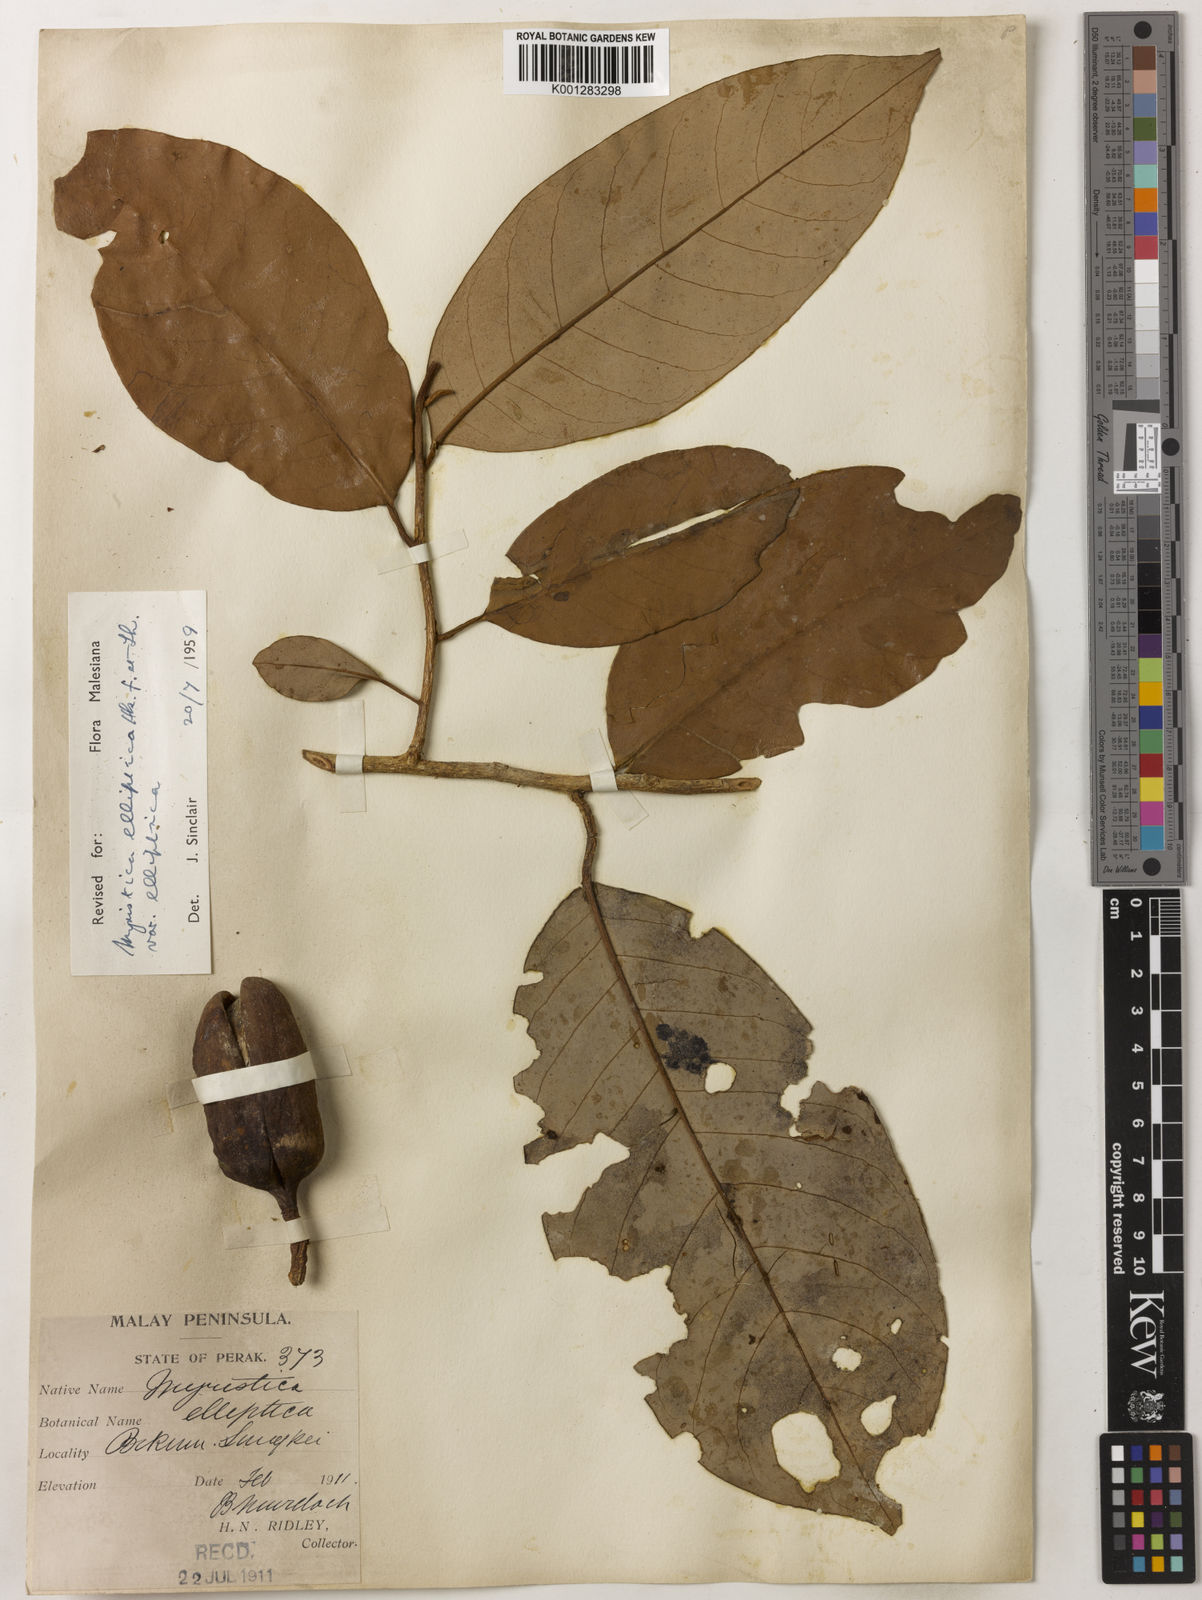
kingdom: Plantae
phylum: Tracheophyta
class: Magnoliopsida
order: Magnoliales
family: Myristicaceae
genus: Myristica
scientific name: Myristica elliptica
